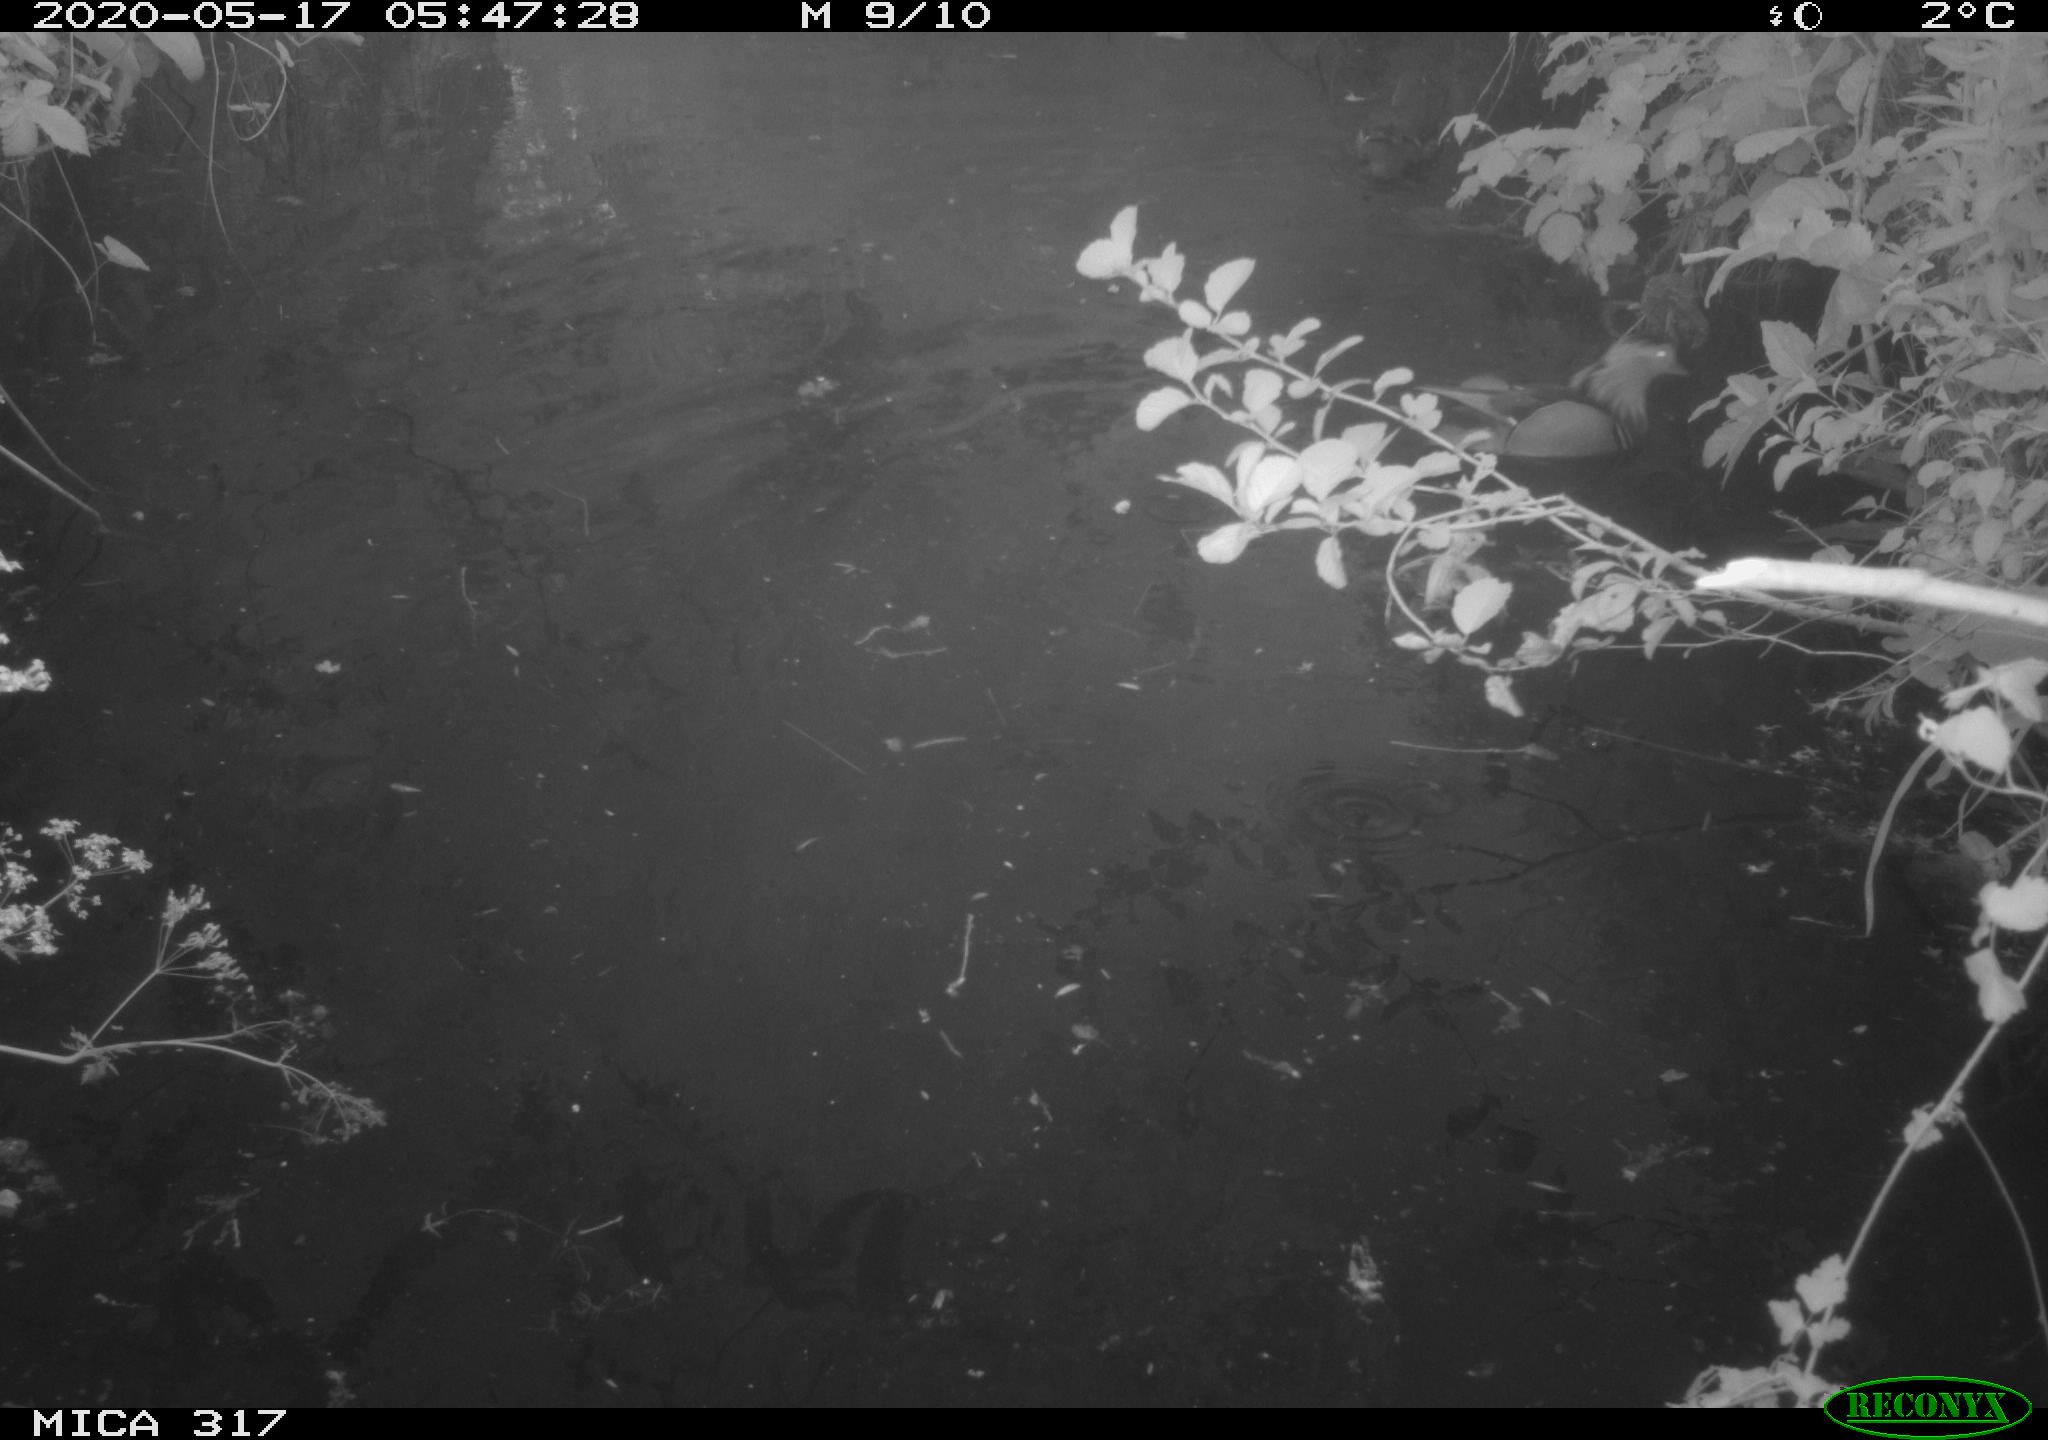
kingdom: Animalia
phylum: Chordata
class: Aves
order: Anseriformes
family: Anatidae
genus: Aix
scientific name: Aix galericulata
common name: Mandarin duck
